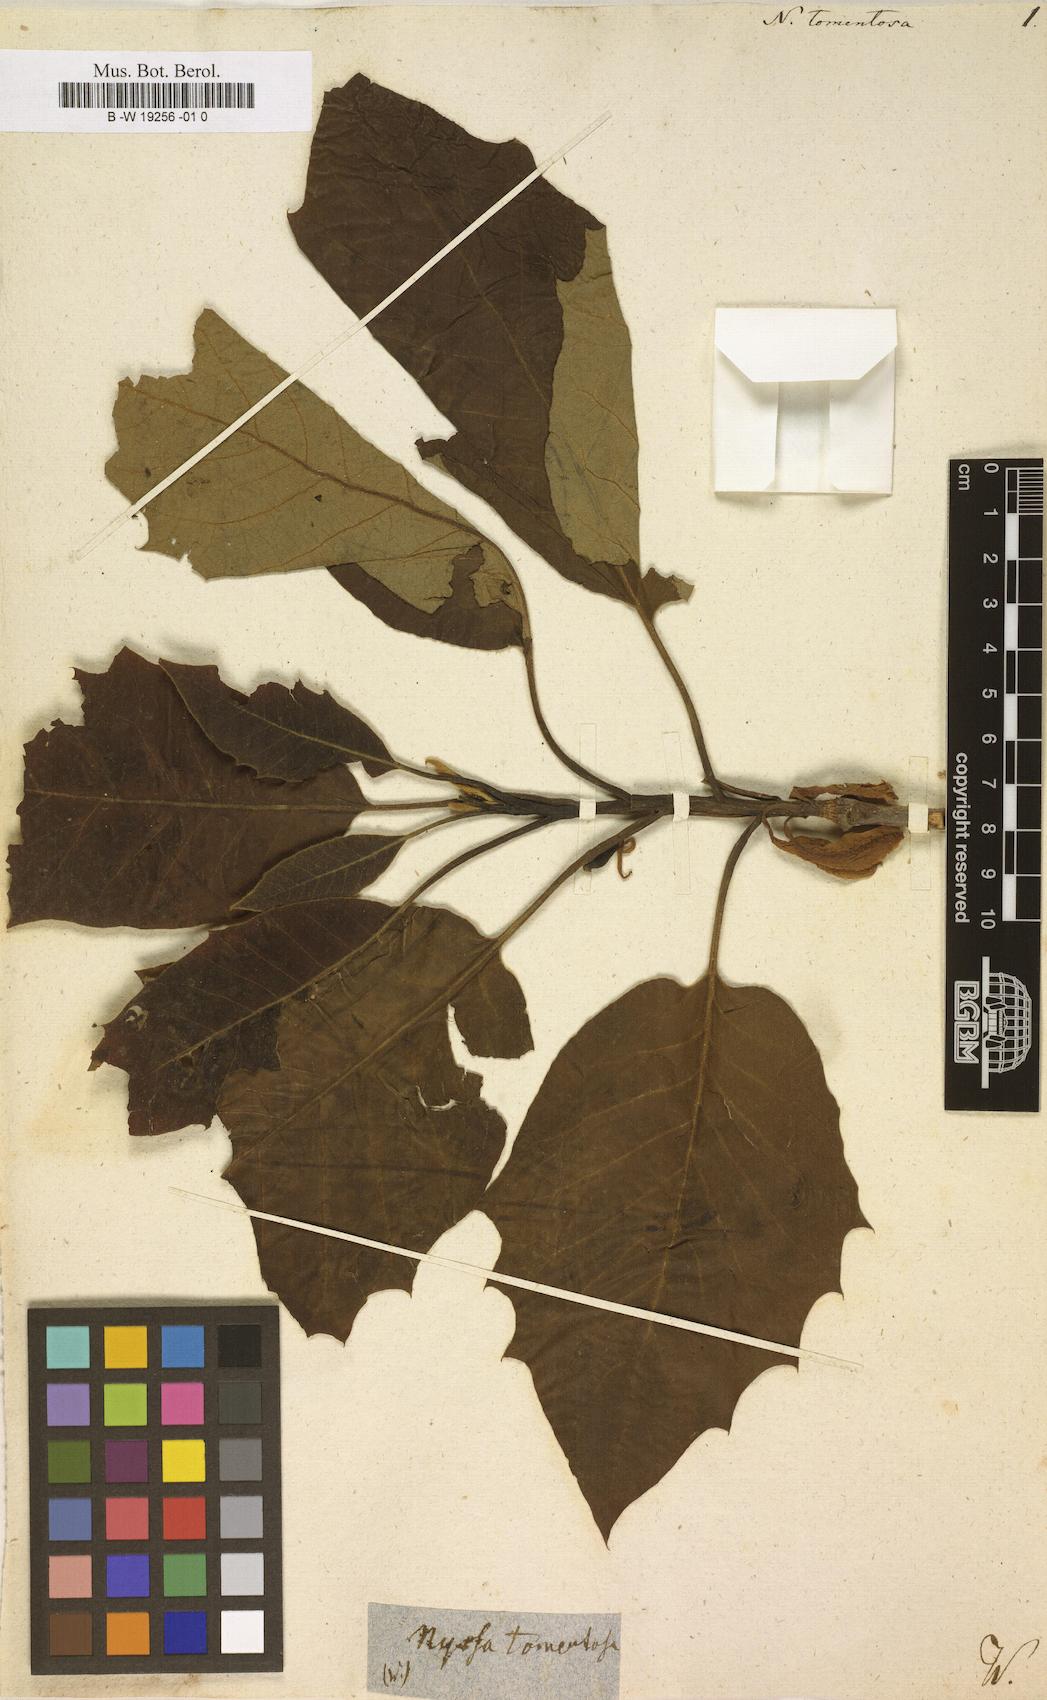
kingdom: Plantae
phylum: Tracheophyta
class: Magnoliopsida
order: Cornales
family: Nyssaceae
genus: Nyssa
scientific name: Nyssa
